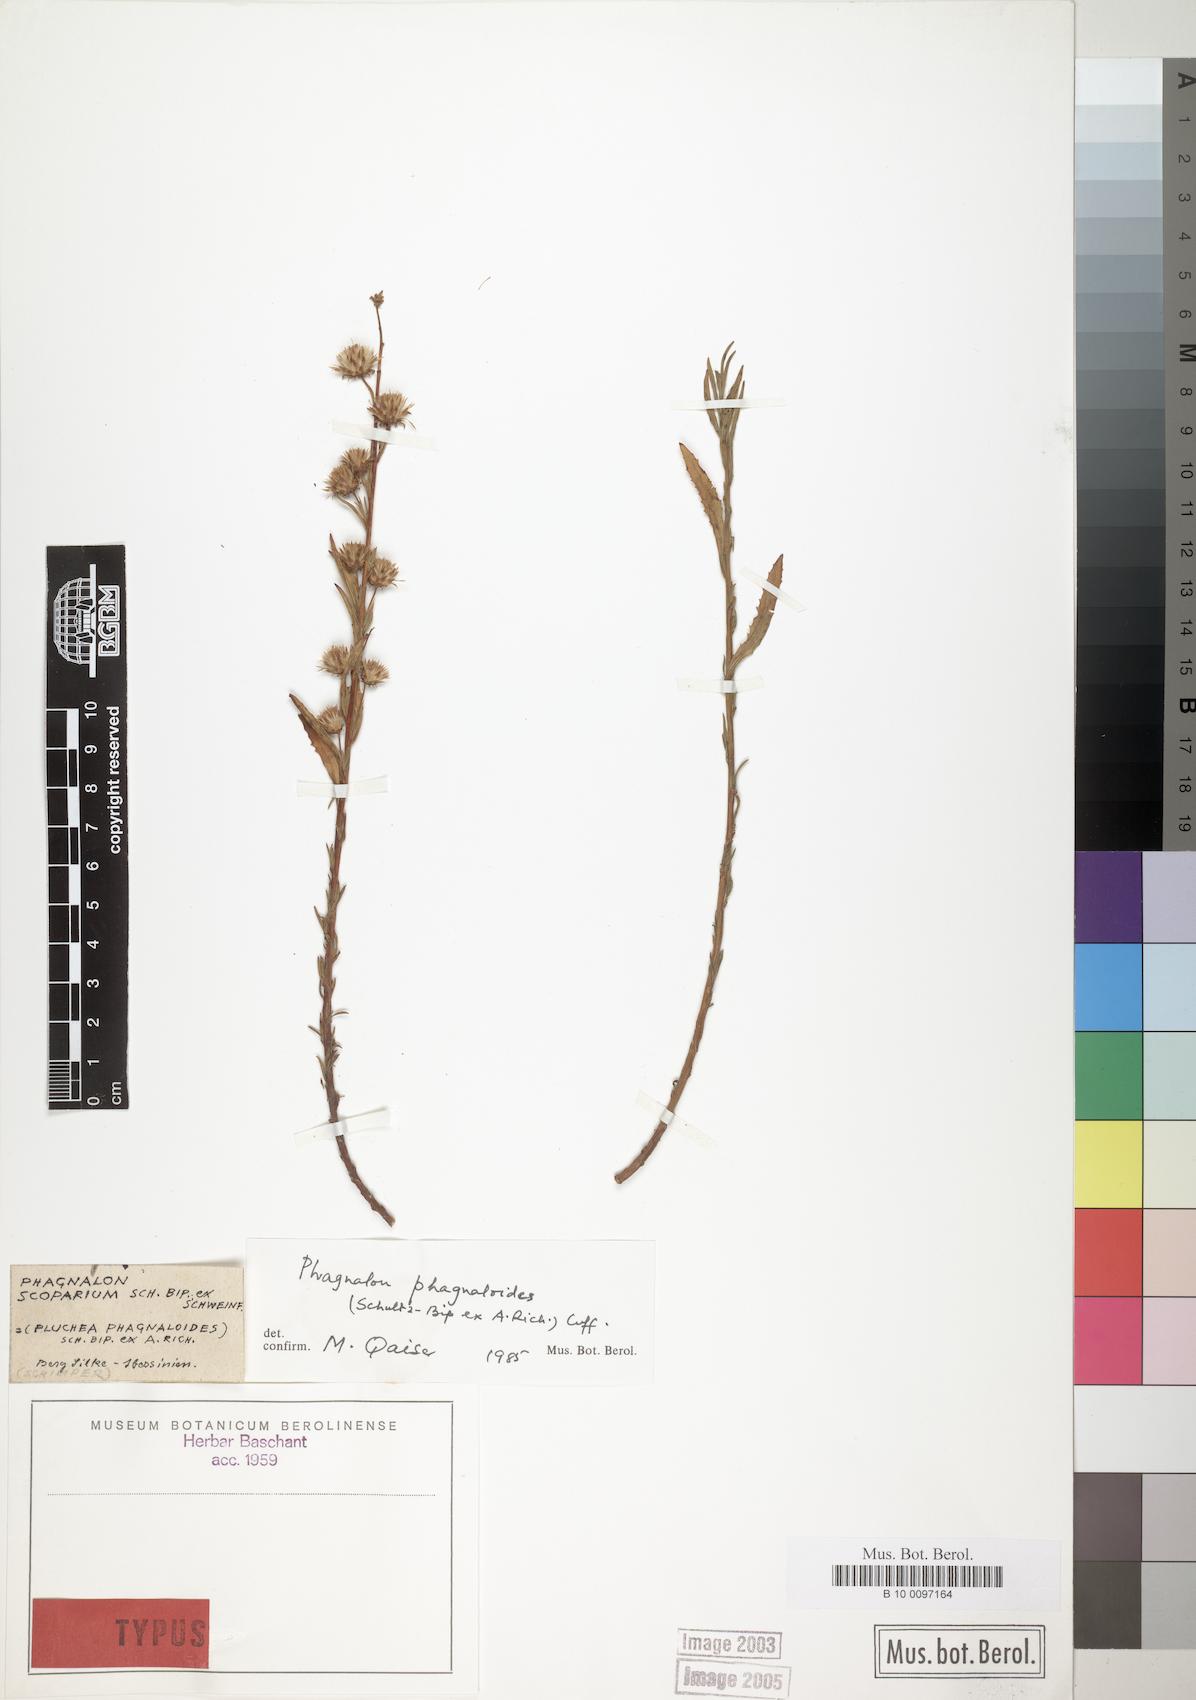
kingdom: Plantae
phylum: Tracheophyta
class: Magnoliopsida
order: Asterales
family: Asteraceae
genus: Phagnalon
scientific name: Phagnalon phagnaloides
